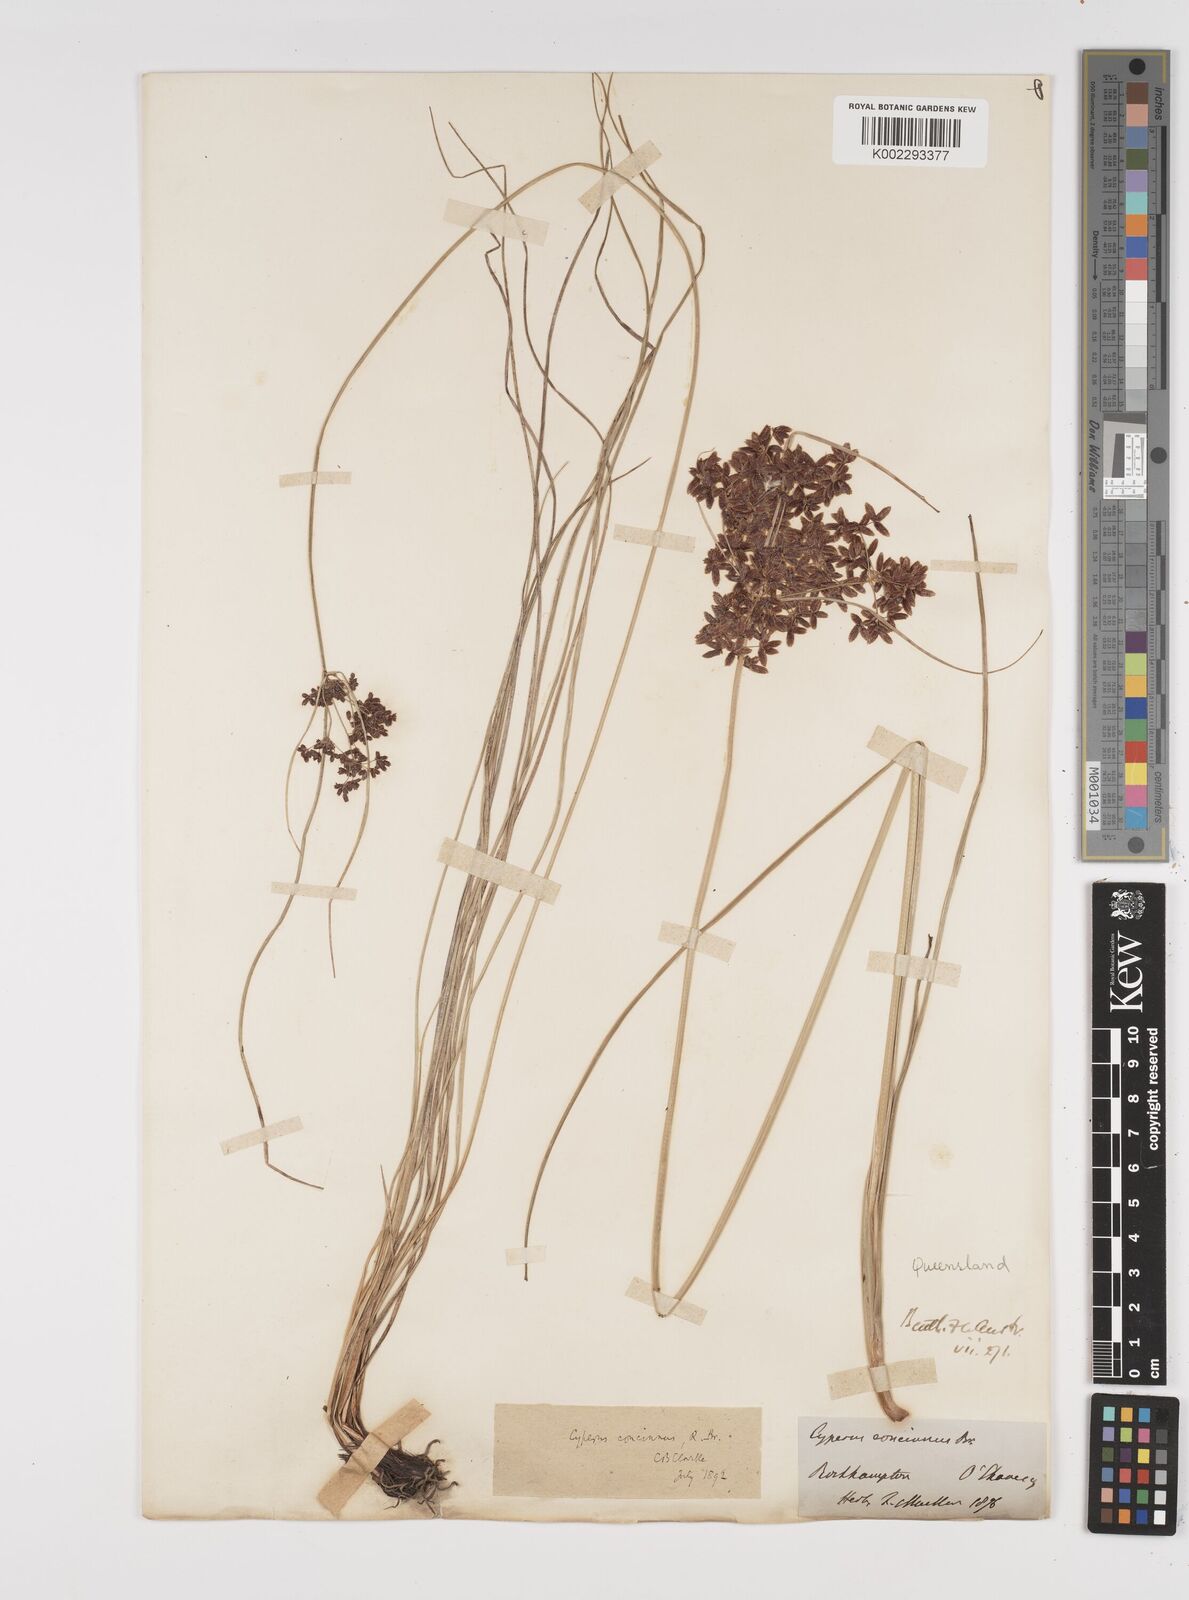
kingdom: Plantae
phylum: Tracheophyta
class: Liliopsida
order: Poales
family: Cyperaceae
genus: Cyperus
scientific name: Cyperus concinnus
